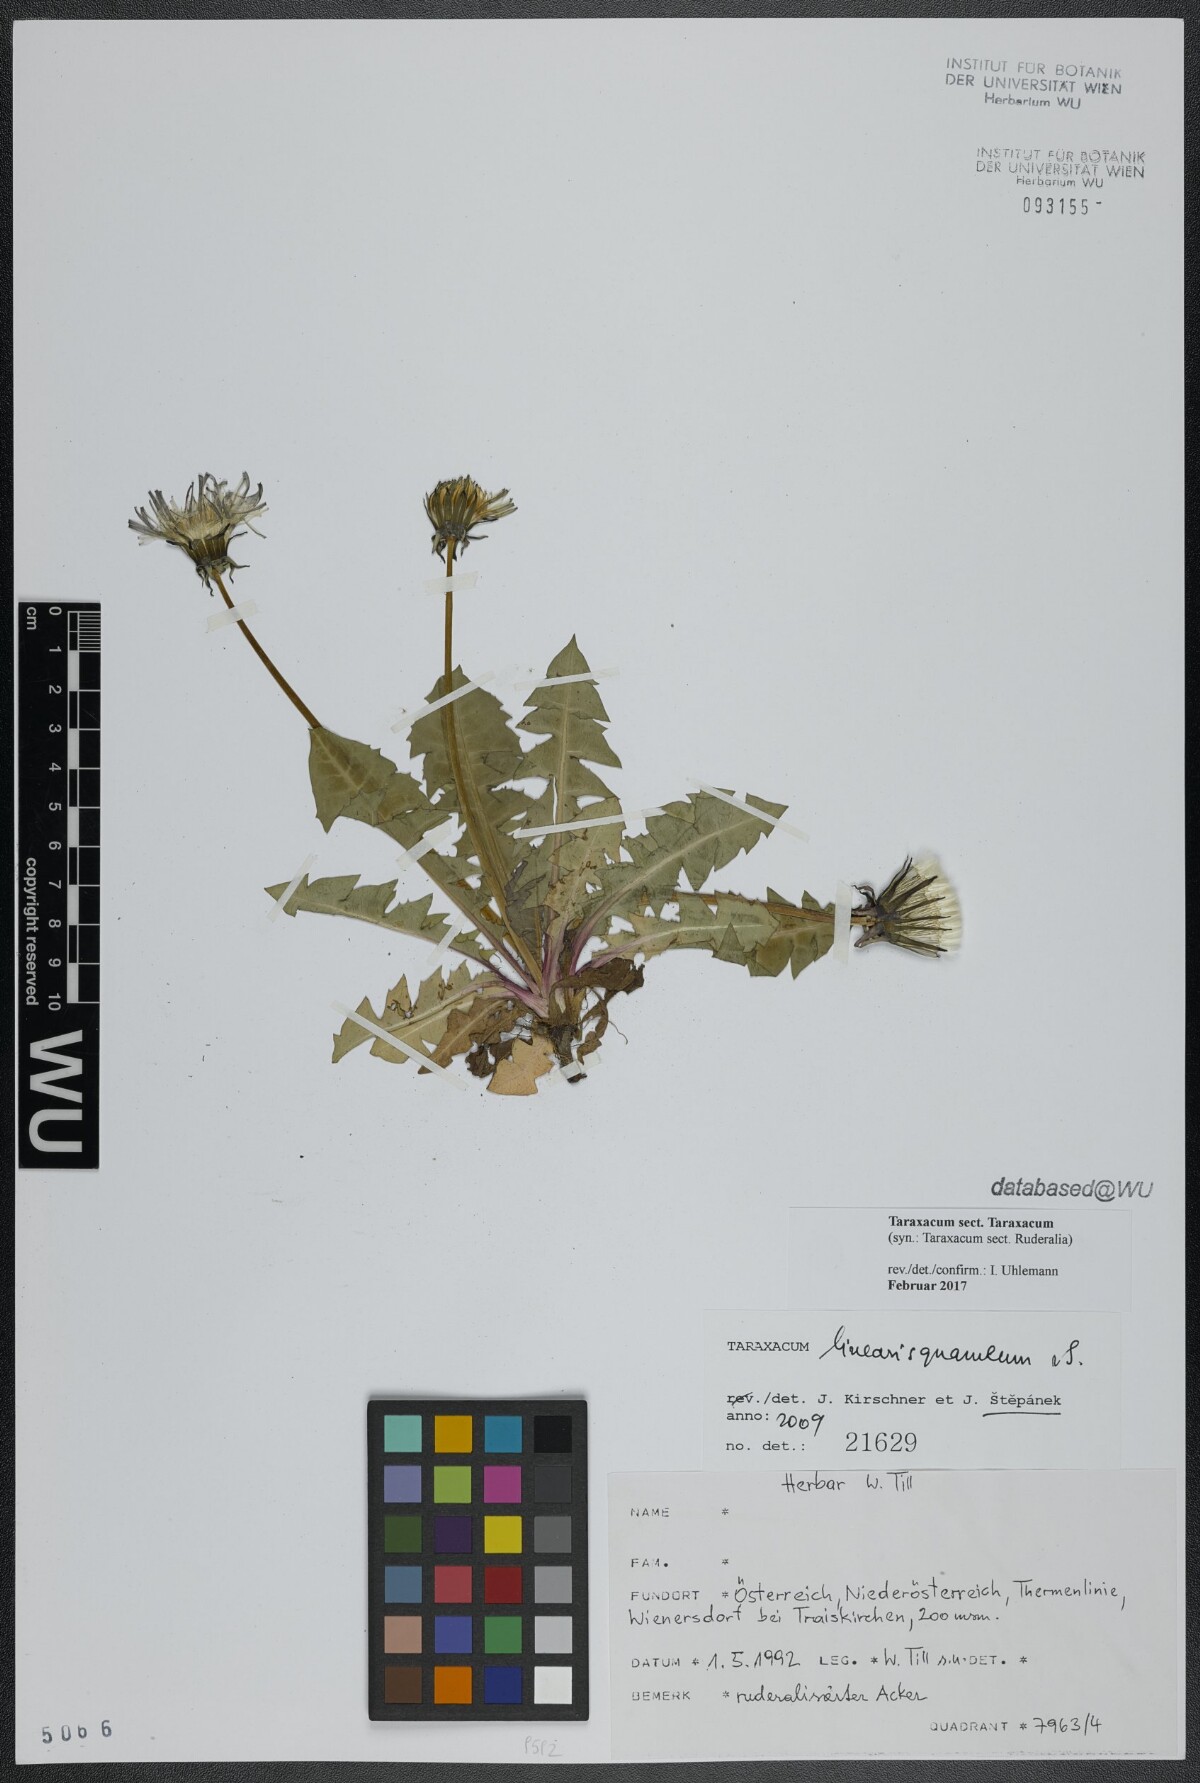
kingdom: Plantae
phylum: Tracheophyta
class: Magnoliopsida
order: Asterales
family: Asteraceae
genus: Taraxacum
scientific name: Taraxacum
